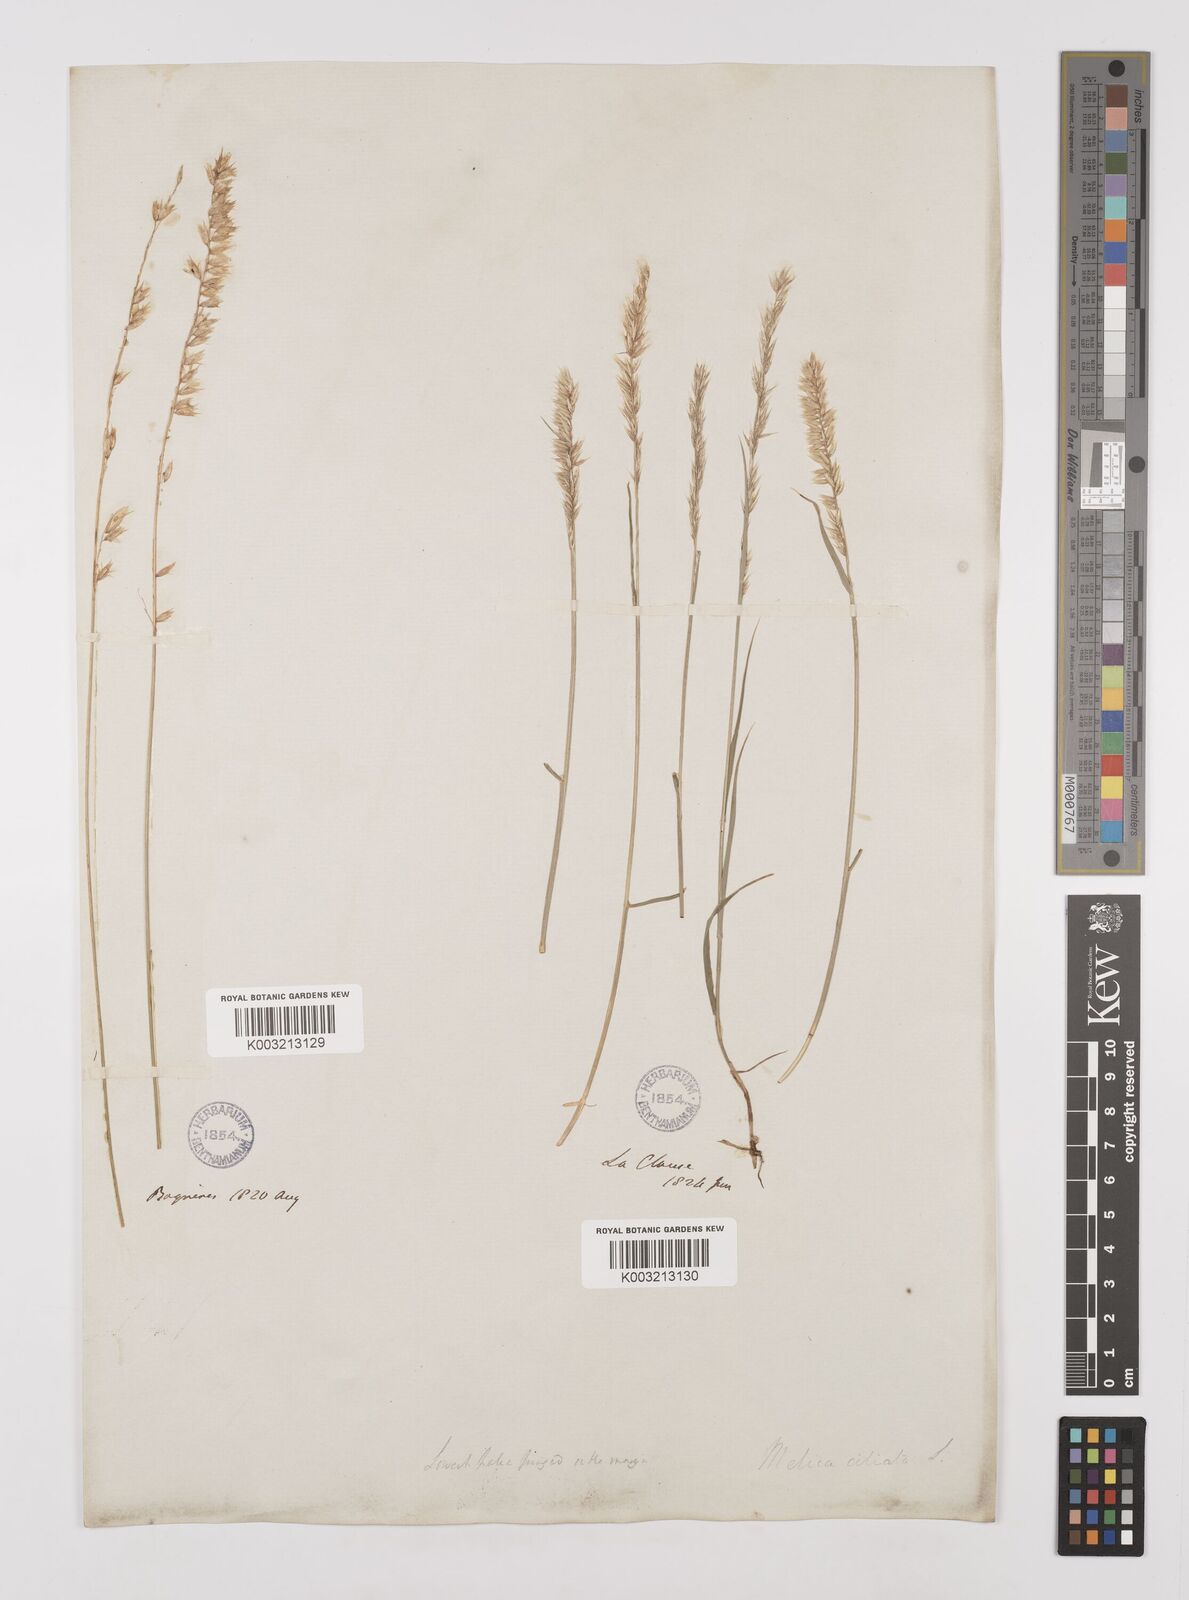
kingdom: Plantae
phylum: Tracheophyta
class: Liliopsida
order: Poales
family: Poaceae
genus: Melica
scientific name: Melica ciliata
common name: Hairy melicgrass
